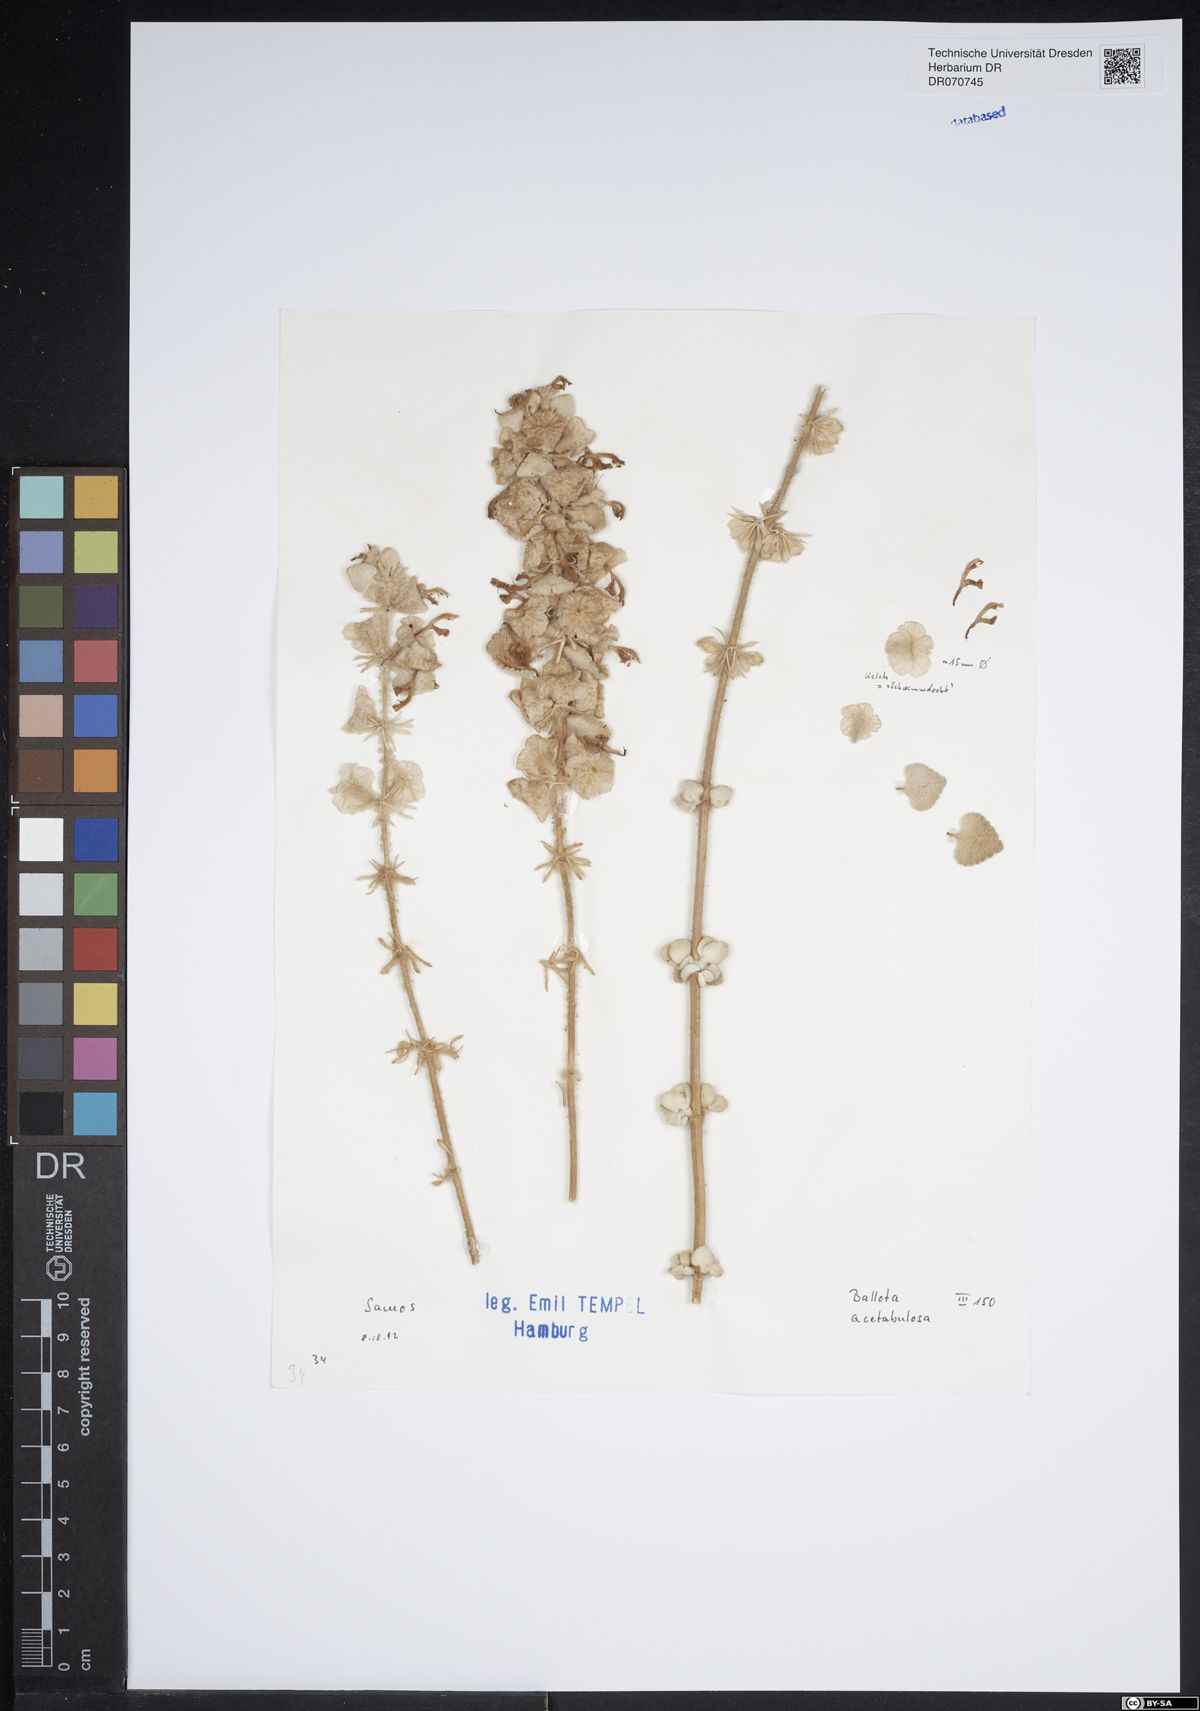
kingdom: Plantae
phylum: Tracheophyta
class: Magnoliopsida
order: Lamiales
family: Lamiaceae
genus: Pseudodictamnus
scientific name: Pseudodictamnus acetabulosus
